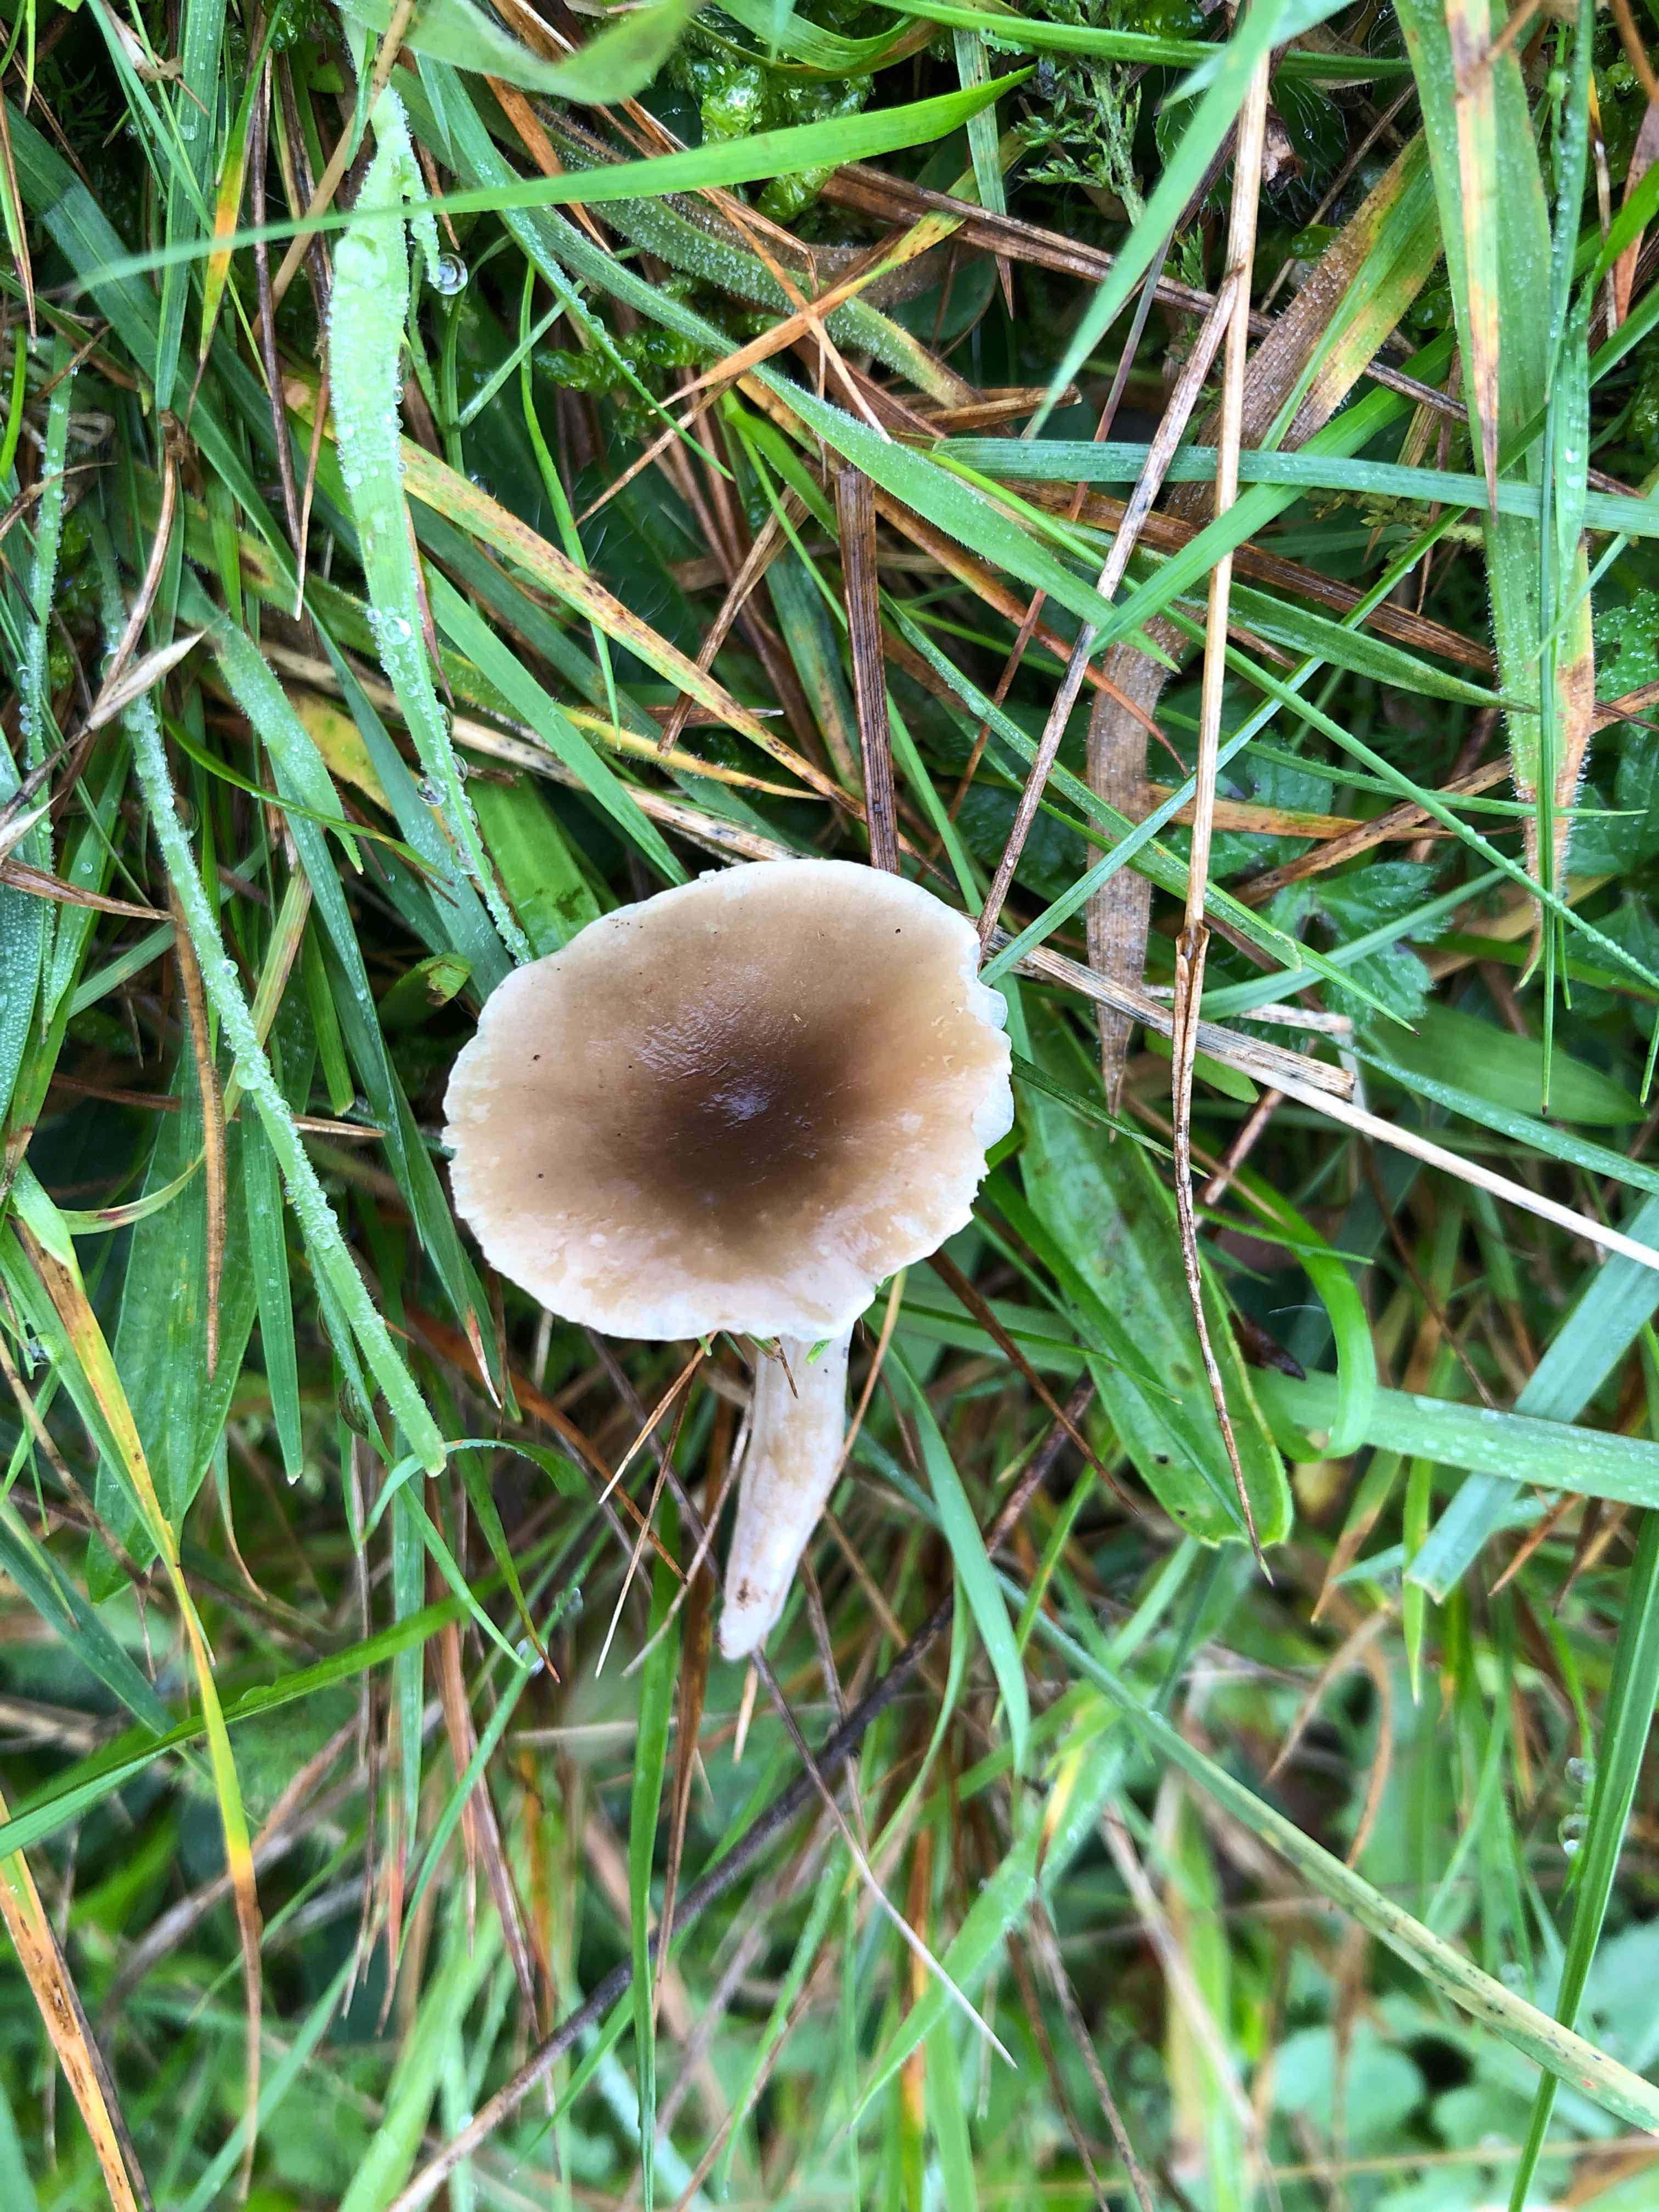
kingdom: Fungi
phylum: Basidiomycota
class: Agaricomycetes
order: Agaricales
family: Tricholomataceae
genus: Dermoloma
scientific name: Dermoloma cuneifolium
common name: eng-nonnehat
